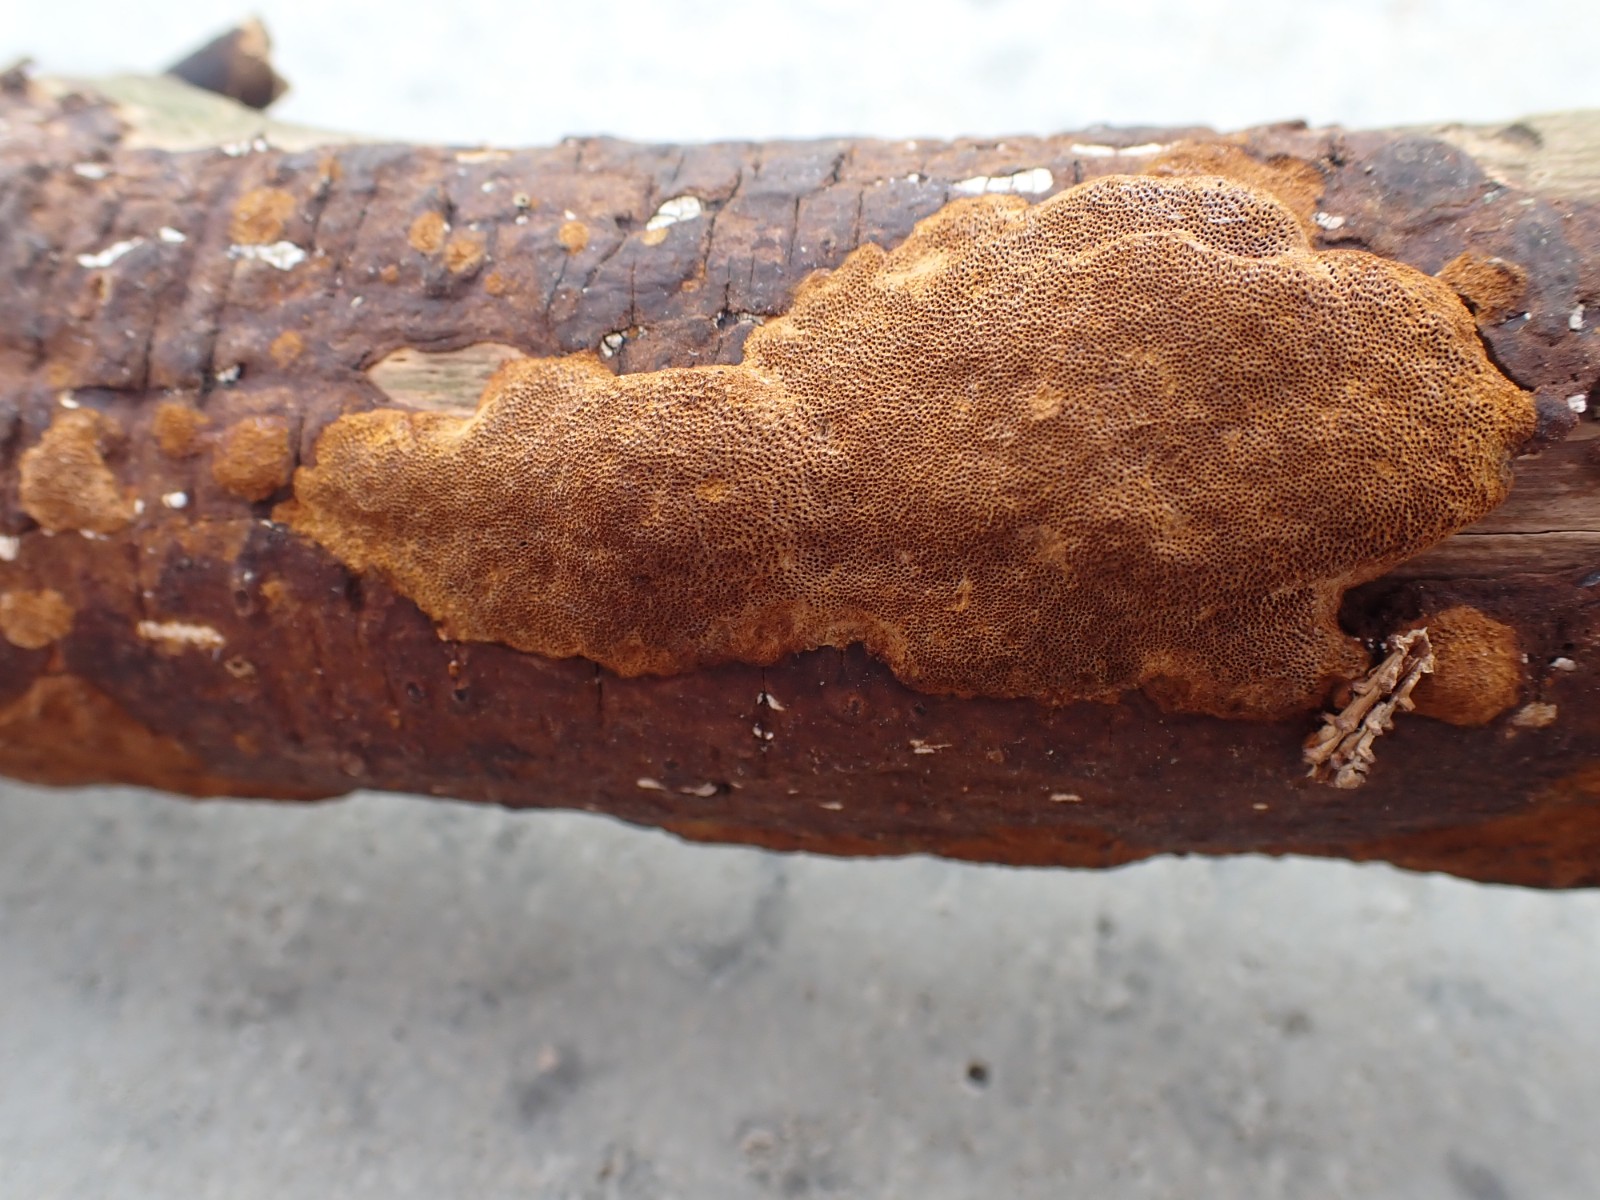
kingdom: Fungi
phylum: Basidiomycota
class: Agaricomycetes
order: Hymenochaetales
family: Hymenochaetaceae
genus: Fuscoporia
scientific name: Fuscoporia ferrea
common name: skorpe-ildporesvamp
